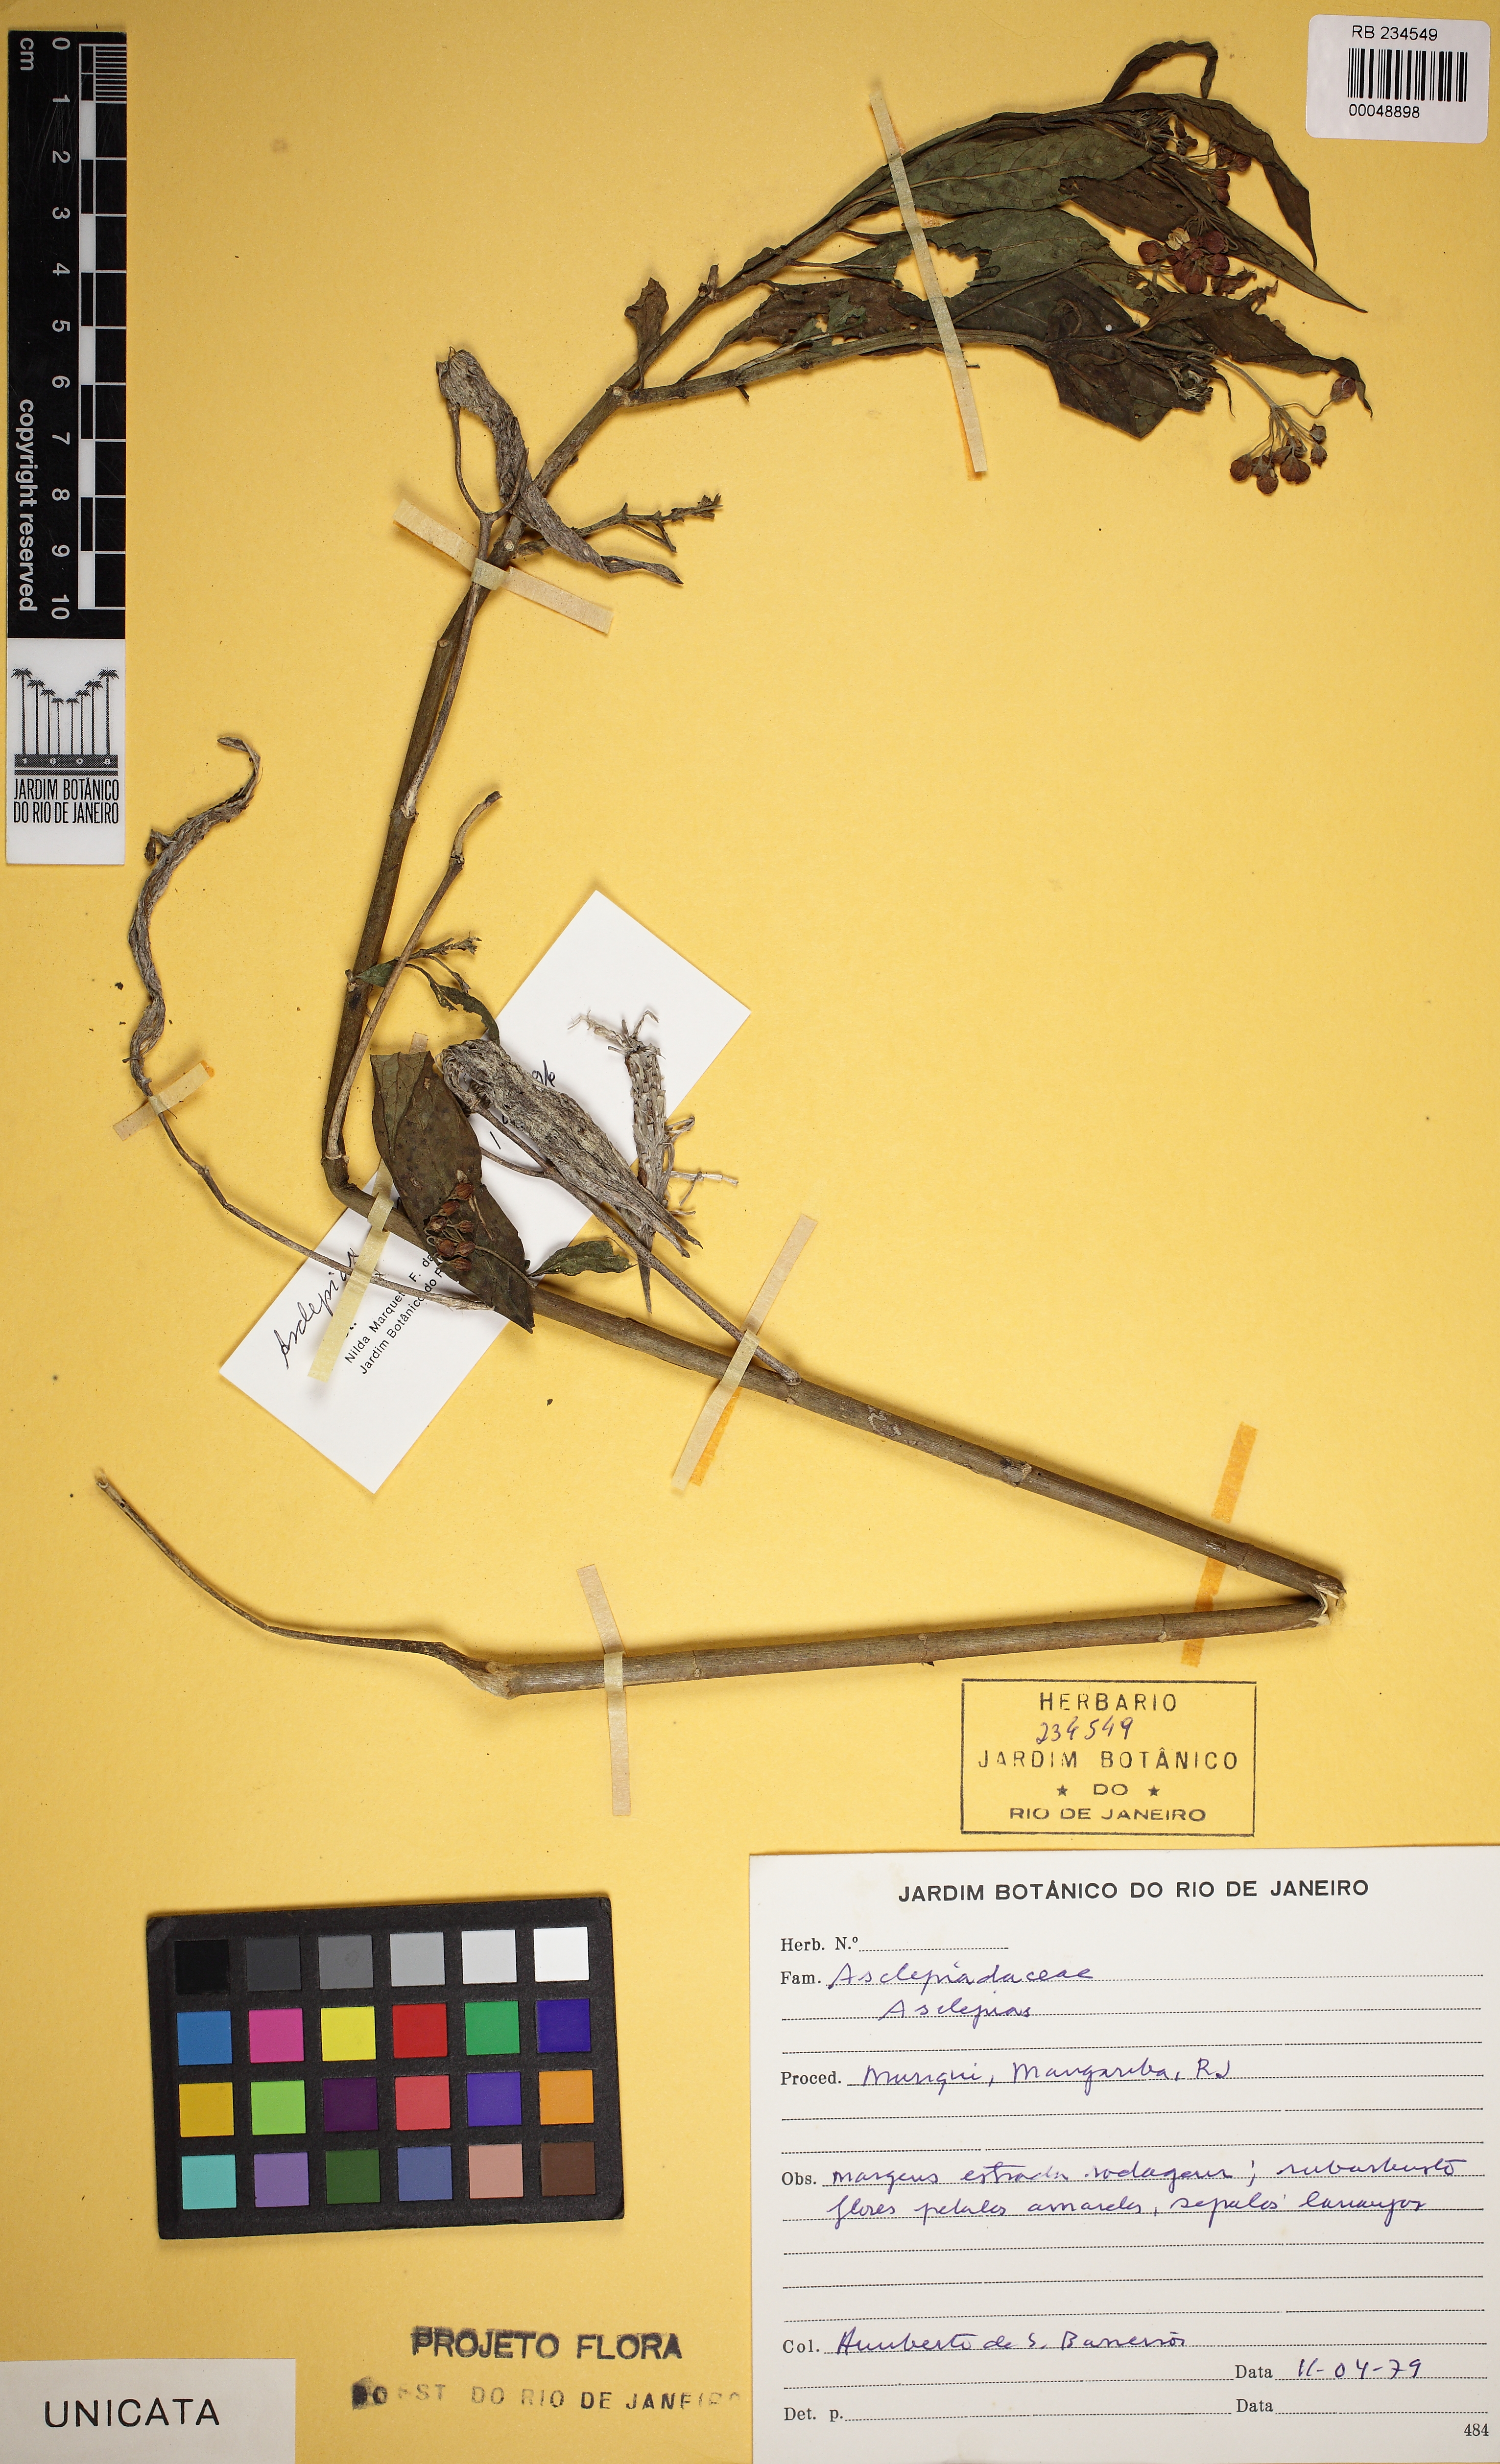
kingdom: Plantae
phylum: Tracheophyta
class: Magnoliopsida
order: Gentianales
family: Apocynaceae
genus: Asclepias
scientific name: Asclepias curassavica
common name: Bloodflower
